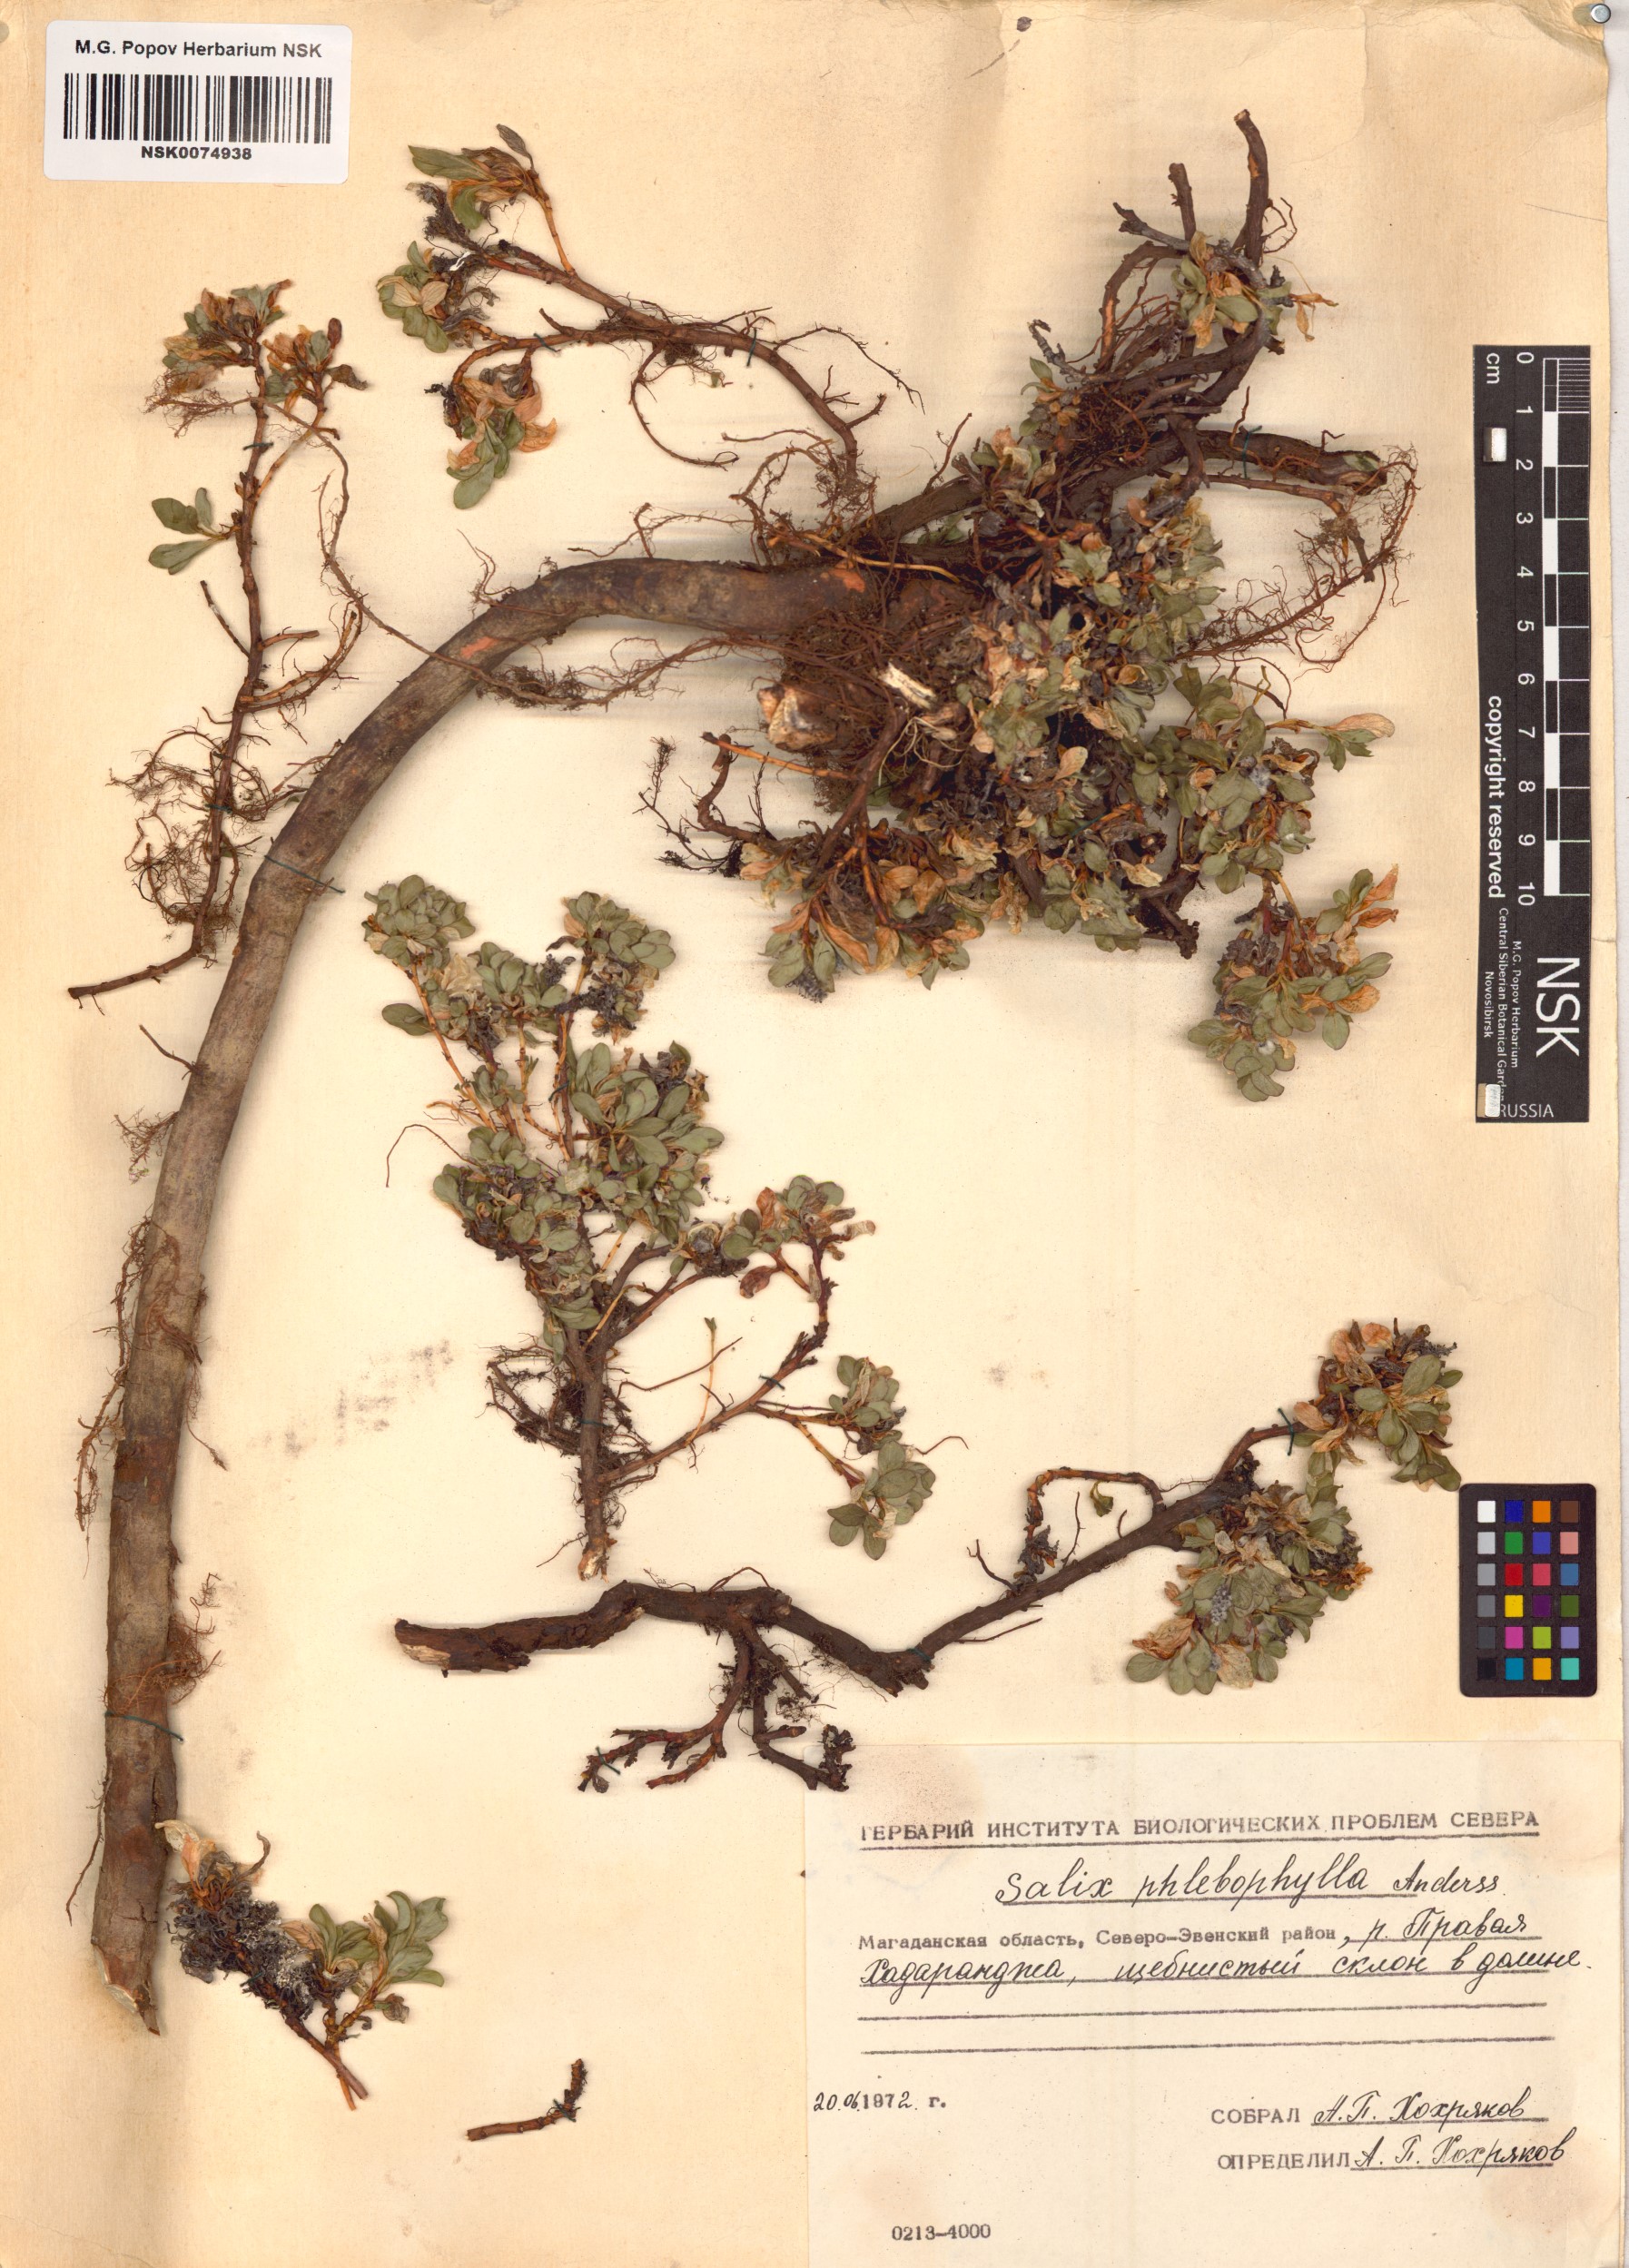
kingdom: Plantae
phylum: Tracheophyta
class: Magnoliopsida
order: Malpighiales
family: Salicaceae
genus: Salix
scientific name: Salix phlebophylla
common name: Skeleton-leaved willow
